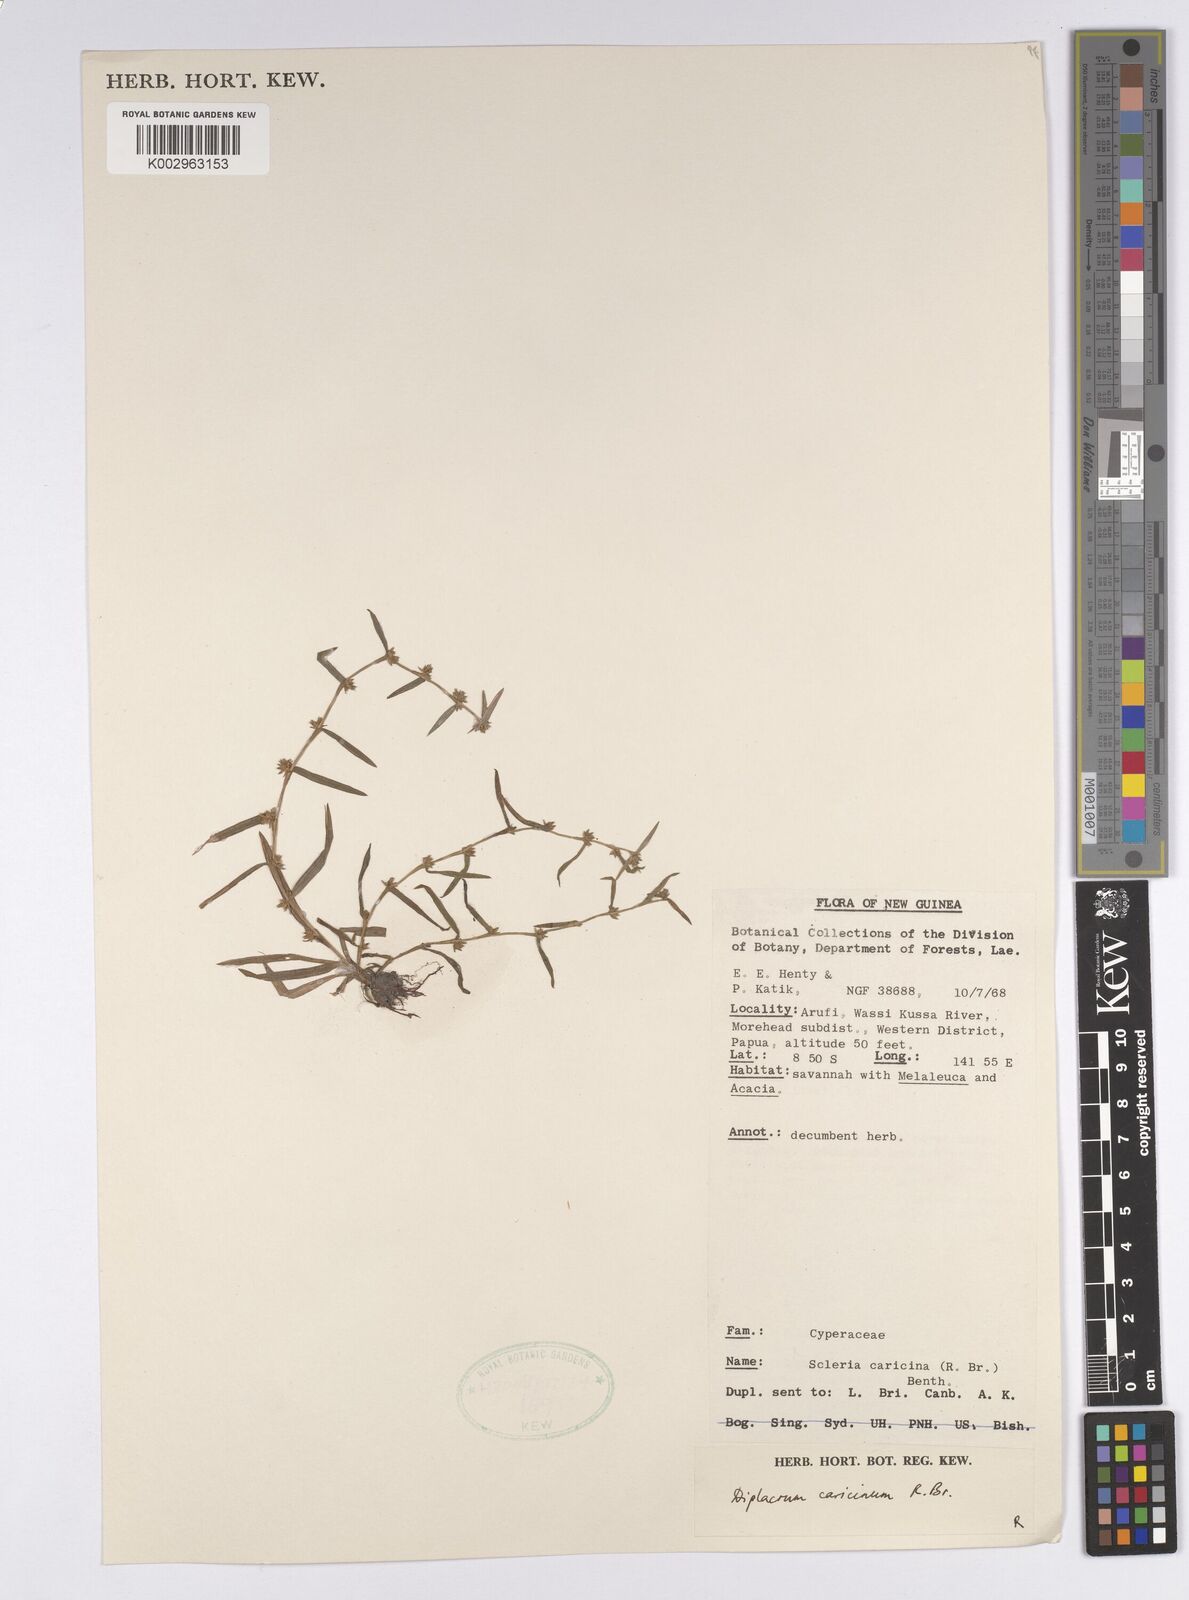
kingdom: Plantae
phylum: Tracheophyta
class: Liliopsida
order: Poales
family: Cyperaceae
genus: Diplacrum
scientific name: Diplacrum caricinum
